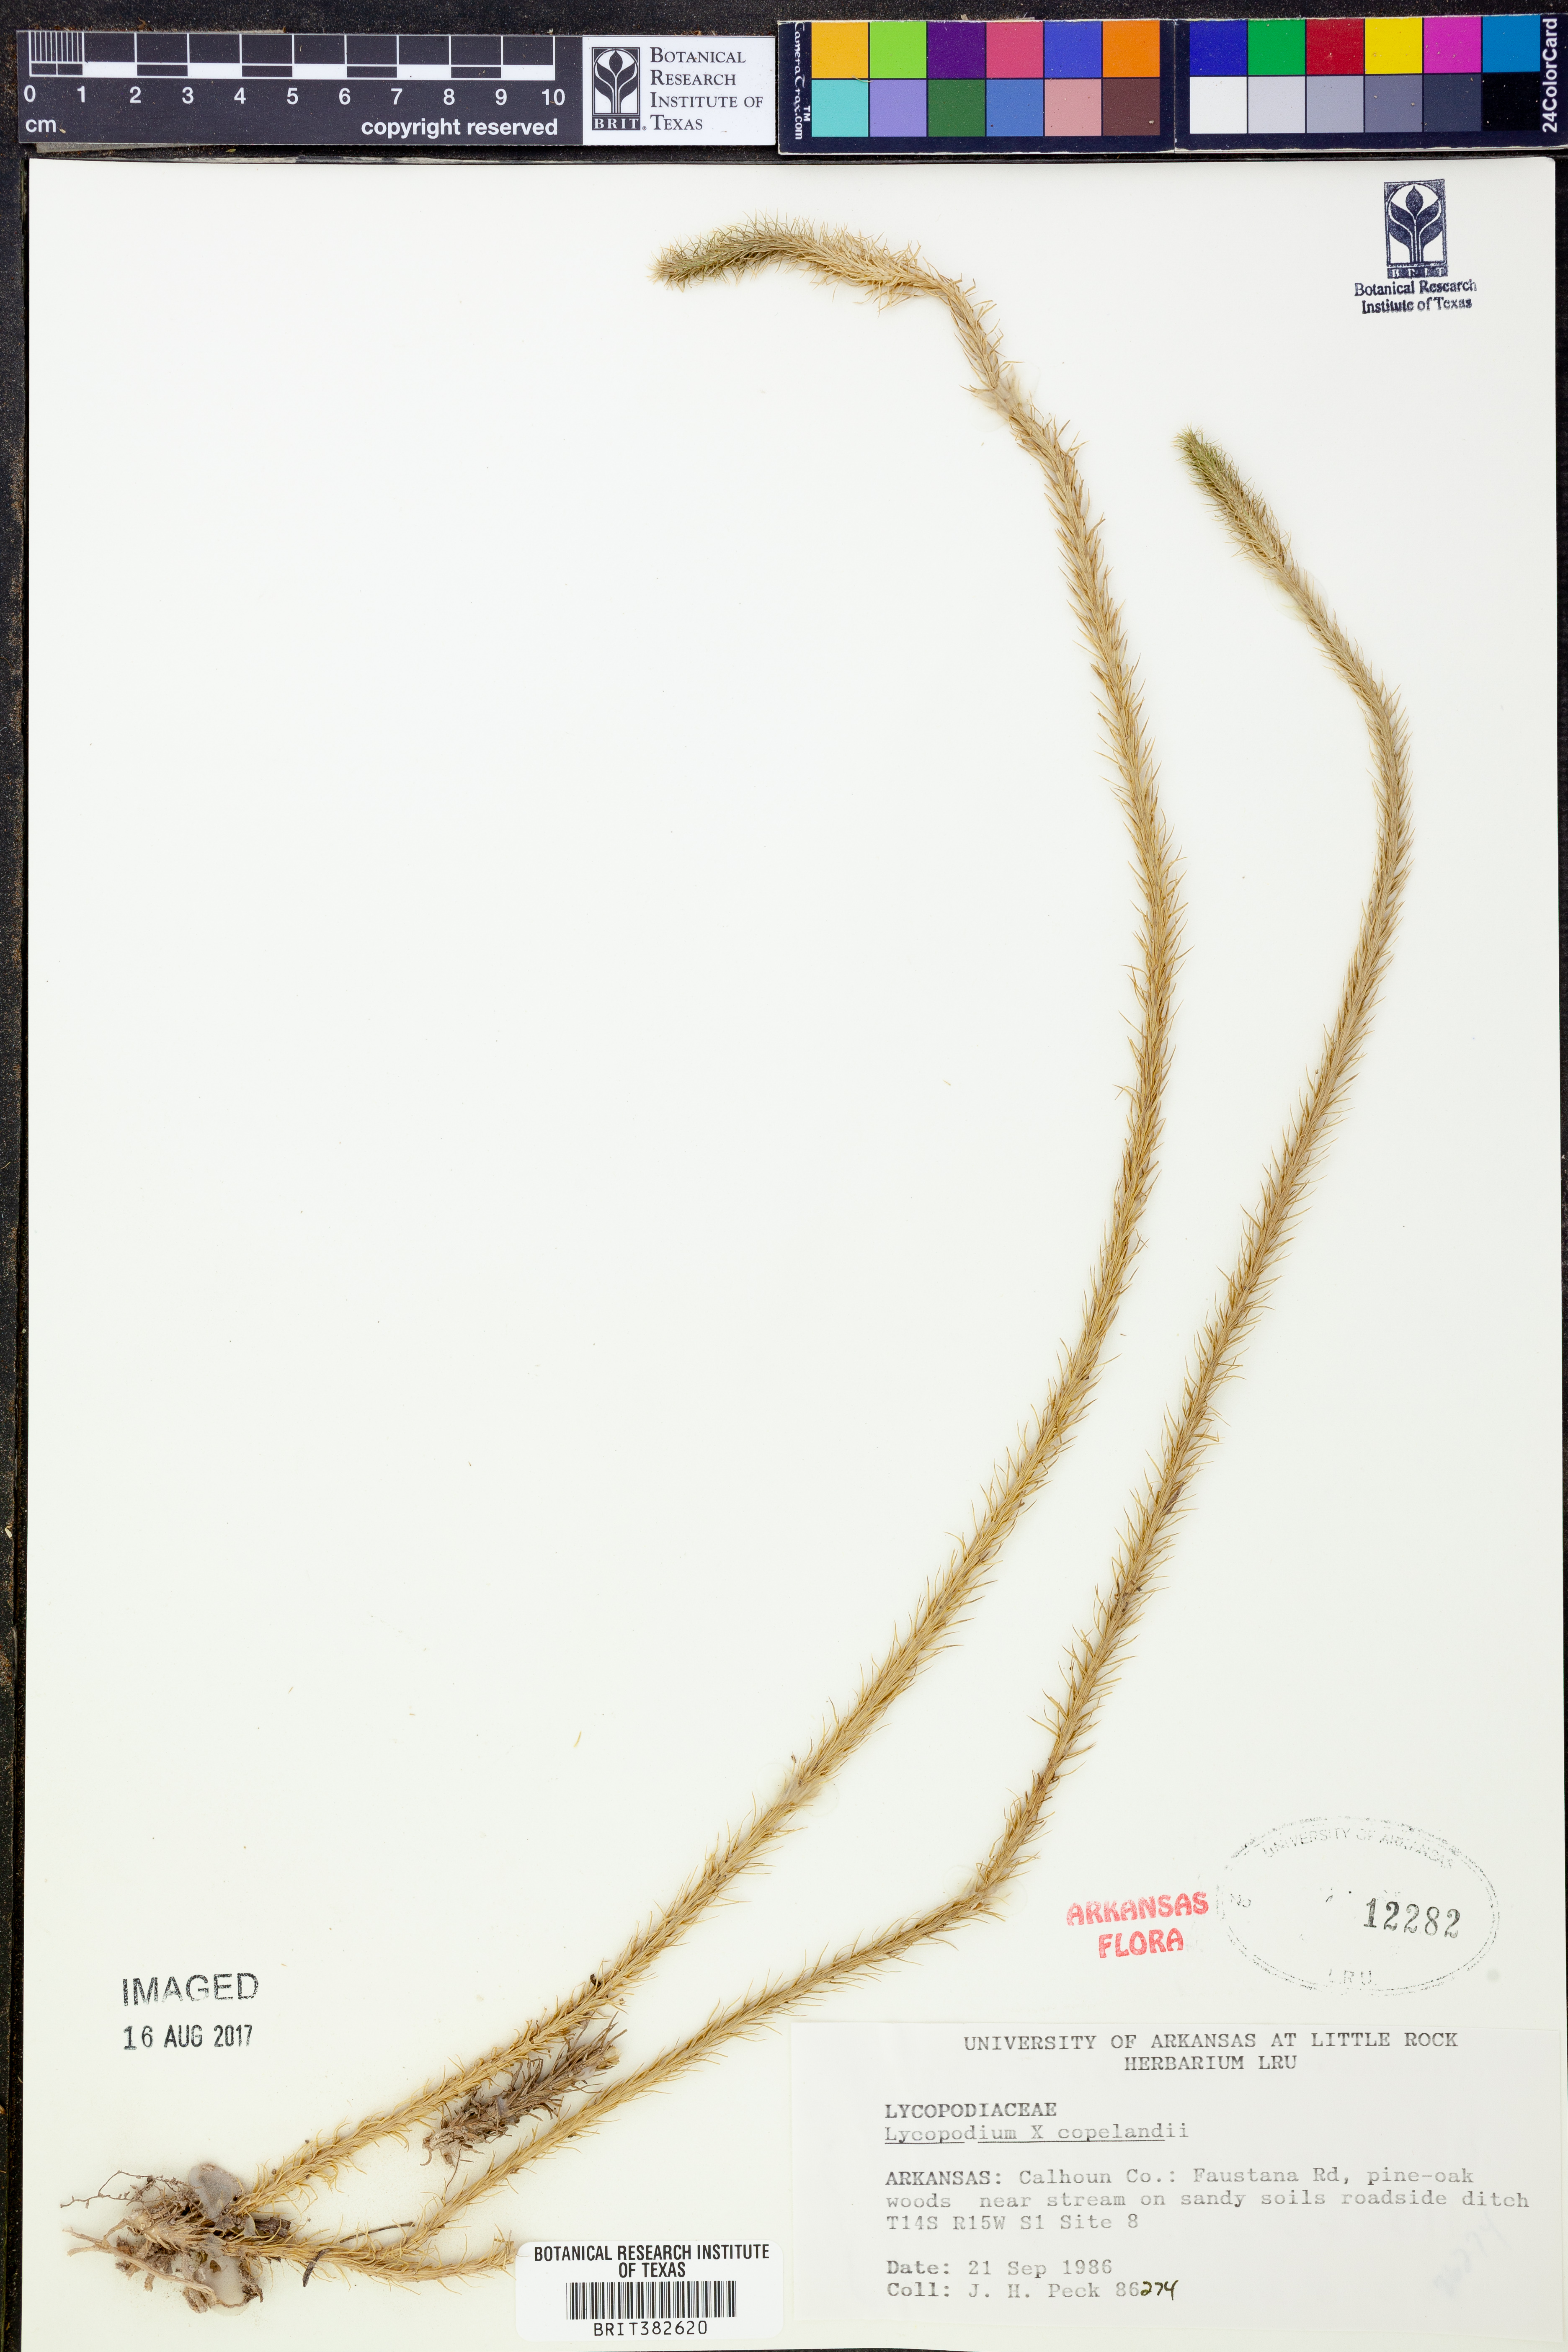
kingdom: Plantae
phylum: Tracheophyta
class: Lycopodiopsida
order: Lycopodiales
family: Lycopodiaceae
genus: Lycopodiella
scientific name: Lycopodiella copelandii
